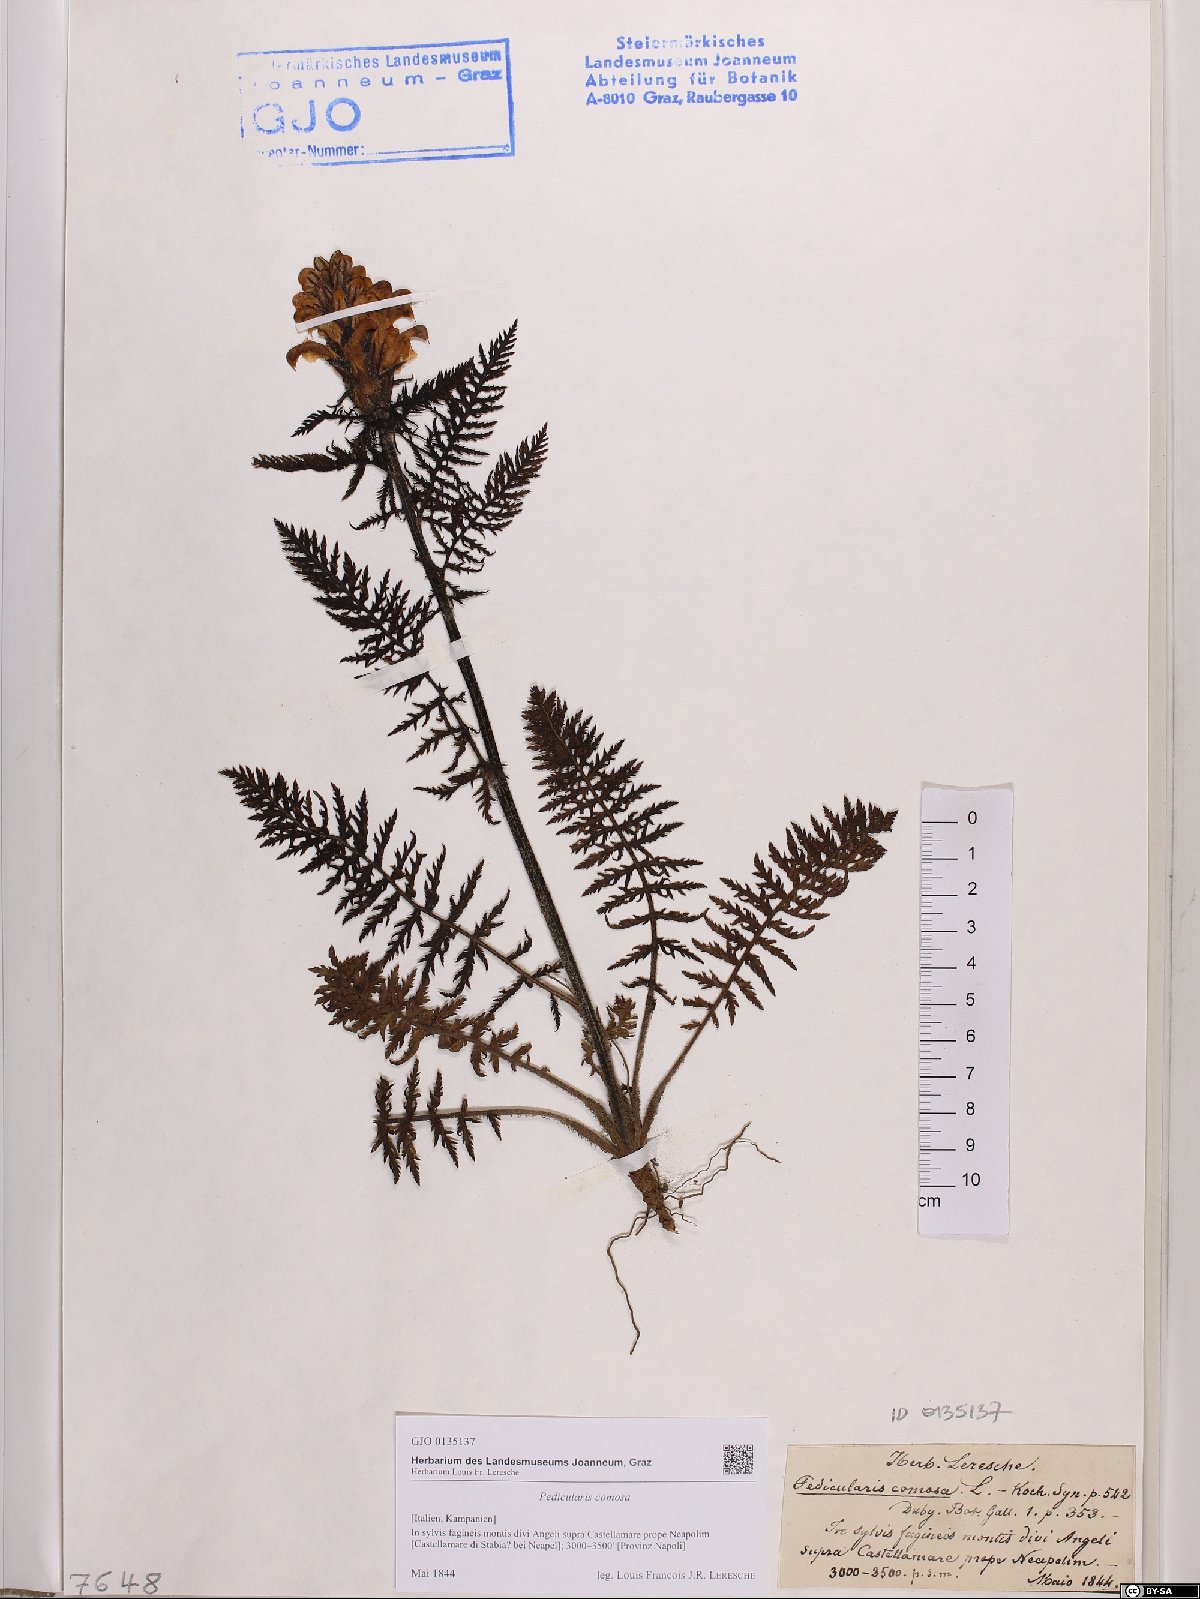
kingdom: Plantae
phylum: Tracheophyta
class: Magnoliopsida
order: Lamiales
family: Orobanchaceae
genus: Pedicularis
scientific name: Pedicularis comosa
